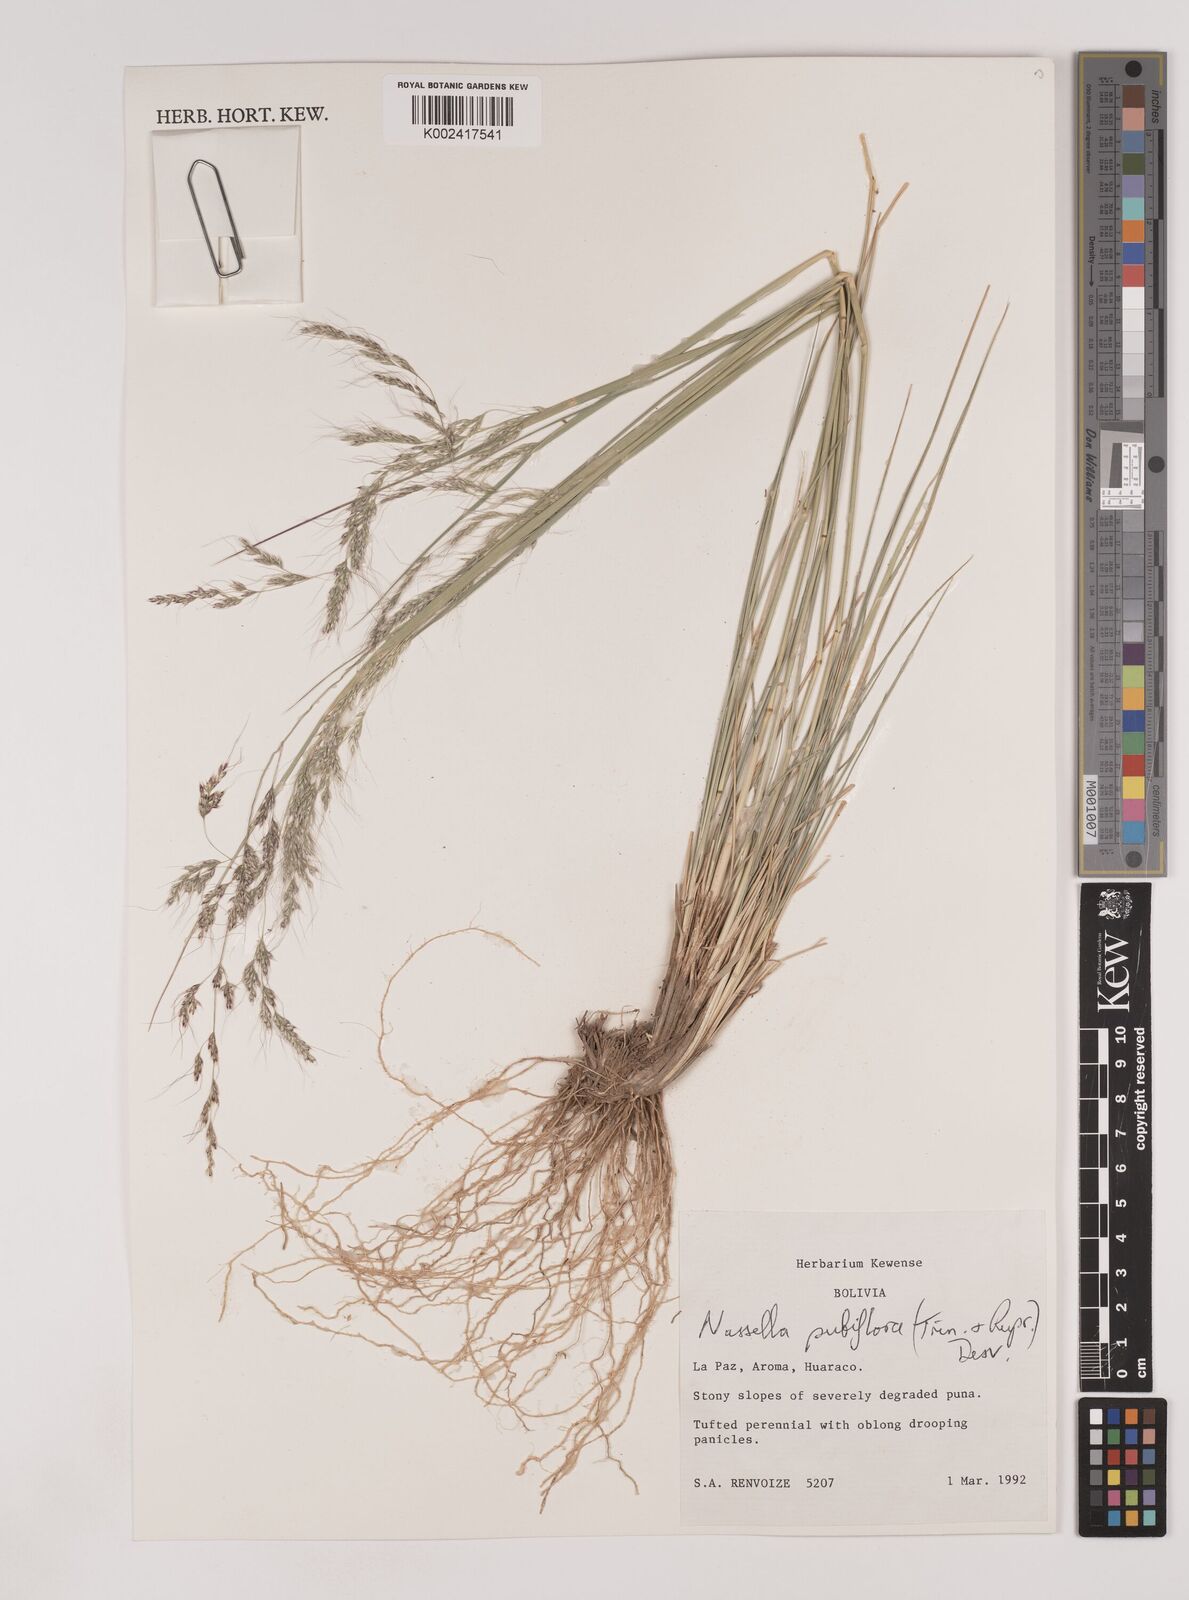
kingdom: Plantae
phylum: Tracheophyta
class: Liliopsida
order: Poales
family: Poaceae
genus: Nassella
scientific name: Nassella pubiflora
